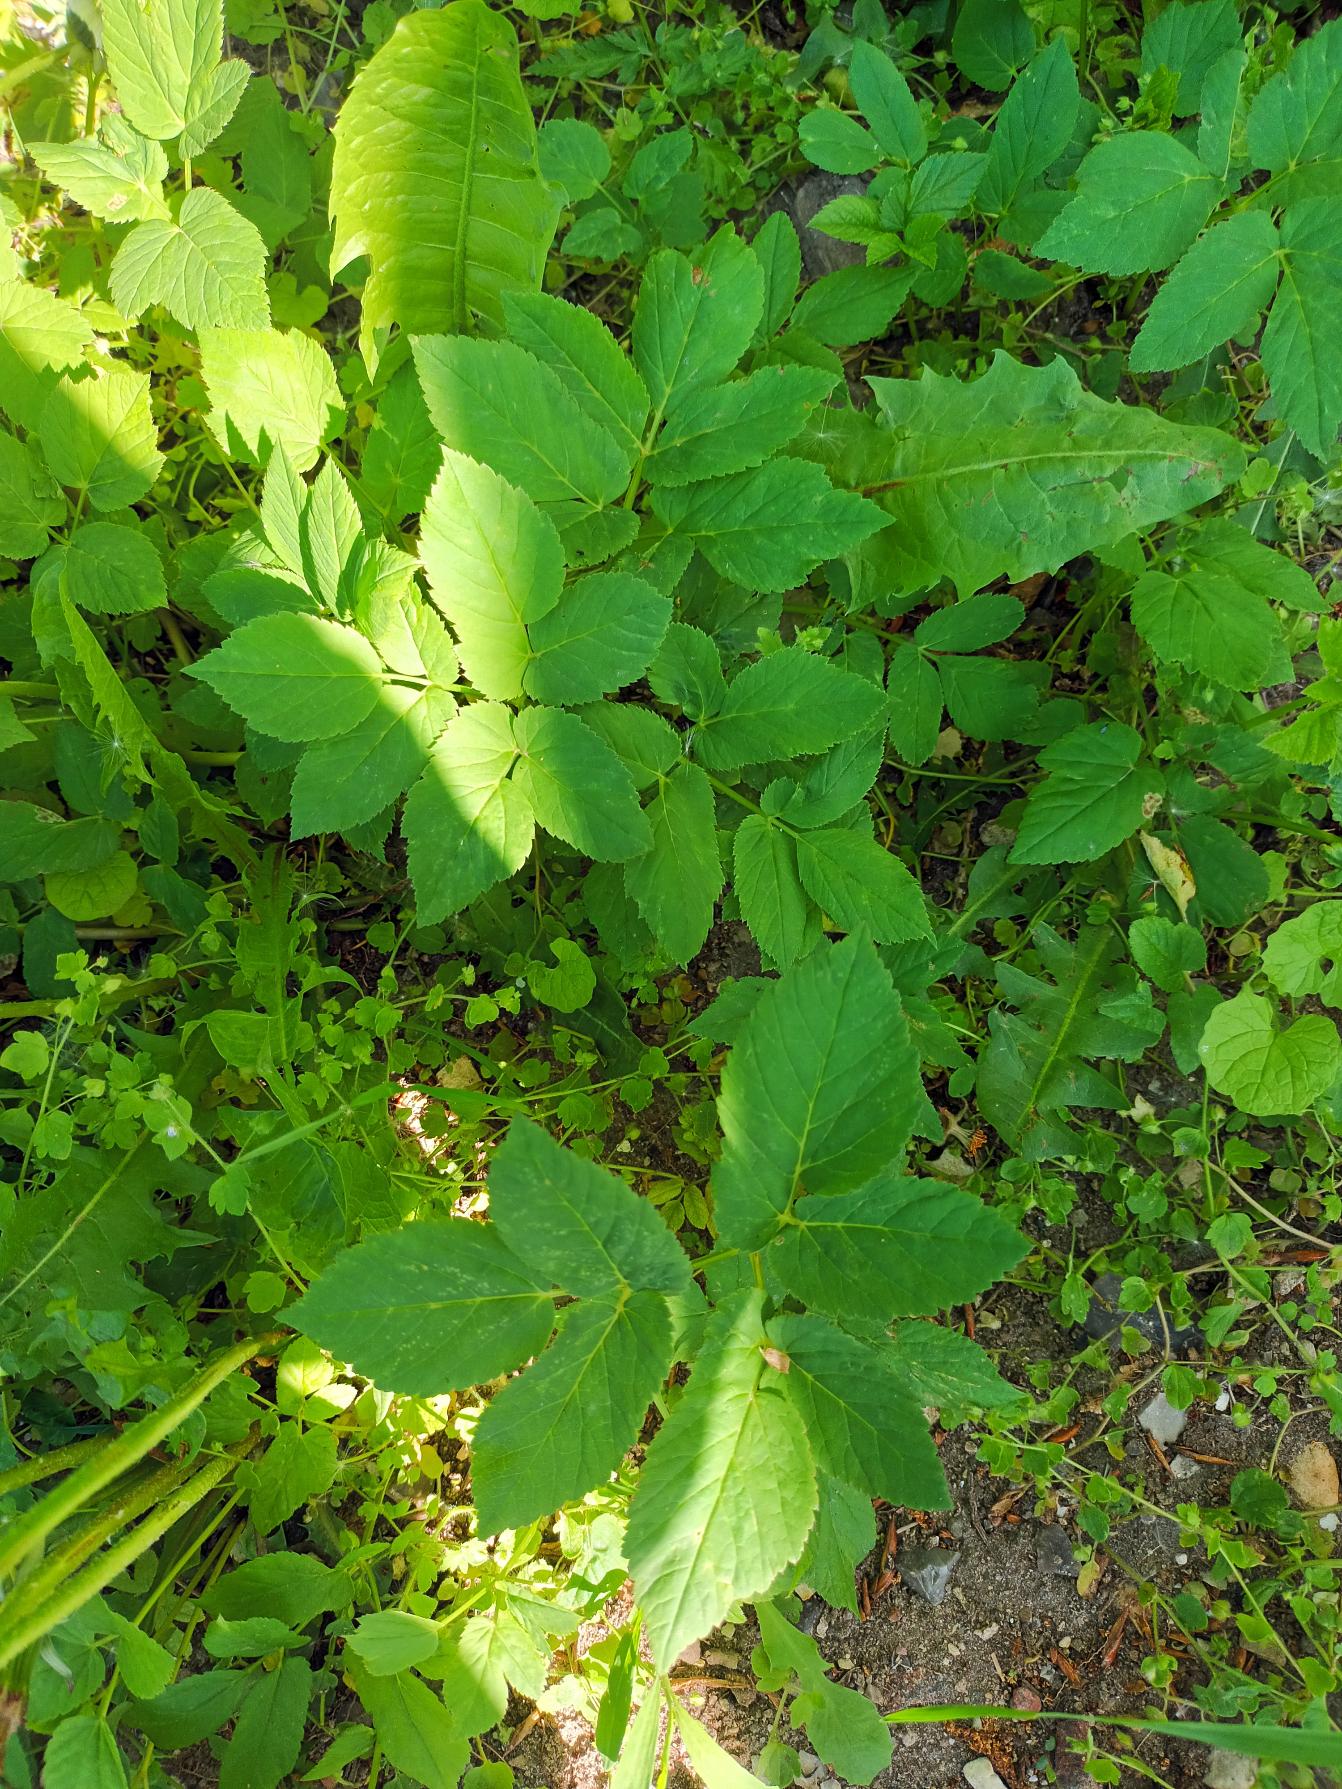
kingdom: Plantae
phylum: Tracheophyta
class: Magnoliopsida
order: Apiales
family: Apiaceae
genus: Aegopodium
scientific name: Aegopodium podagraria
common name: Skvalderkål
